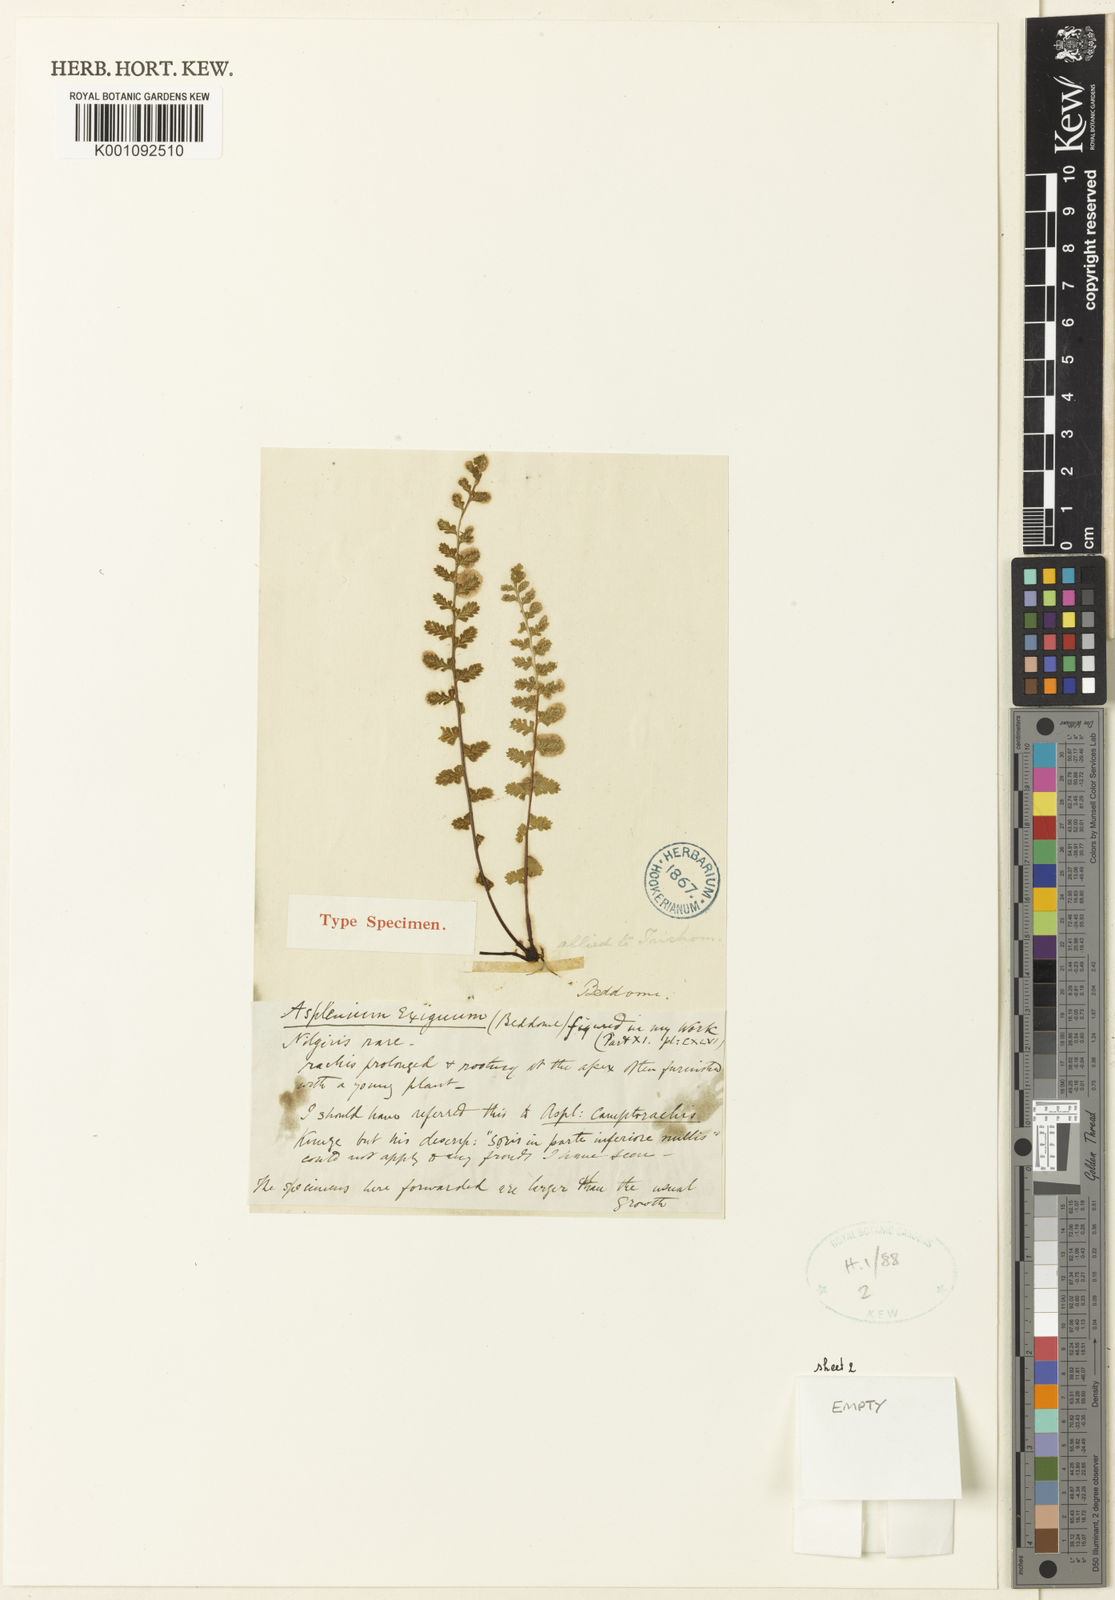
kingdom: Plantae
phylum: Tracheophyta
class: Polypodiopsida
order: Polypodiales
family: Aspleniaceae
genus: Asplenium
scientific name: Asplenium exiguum
